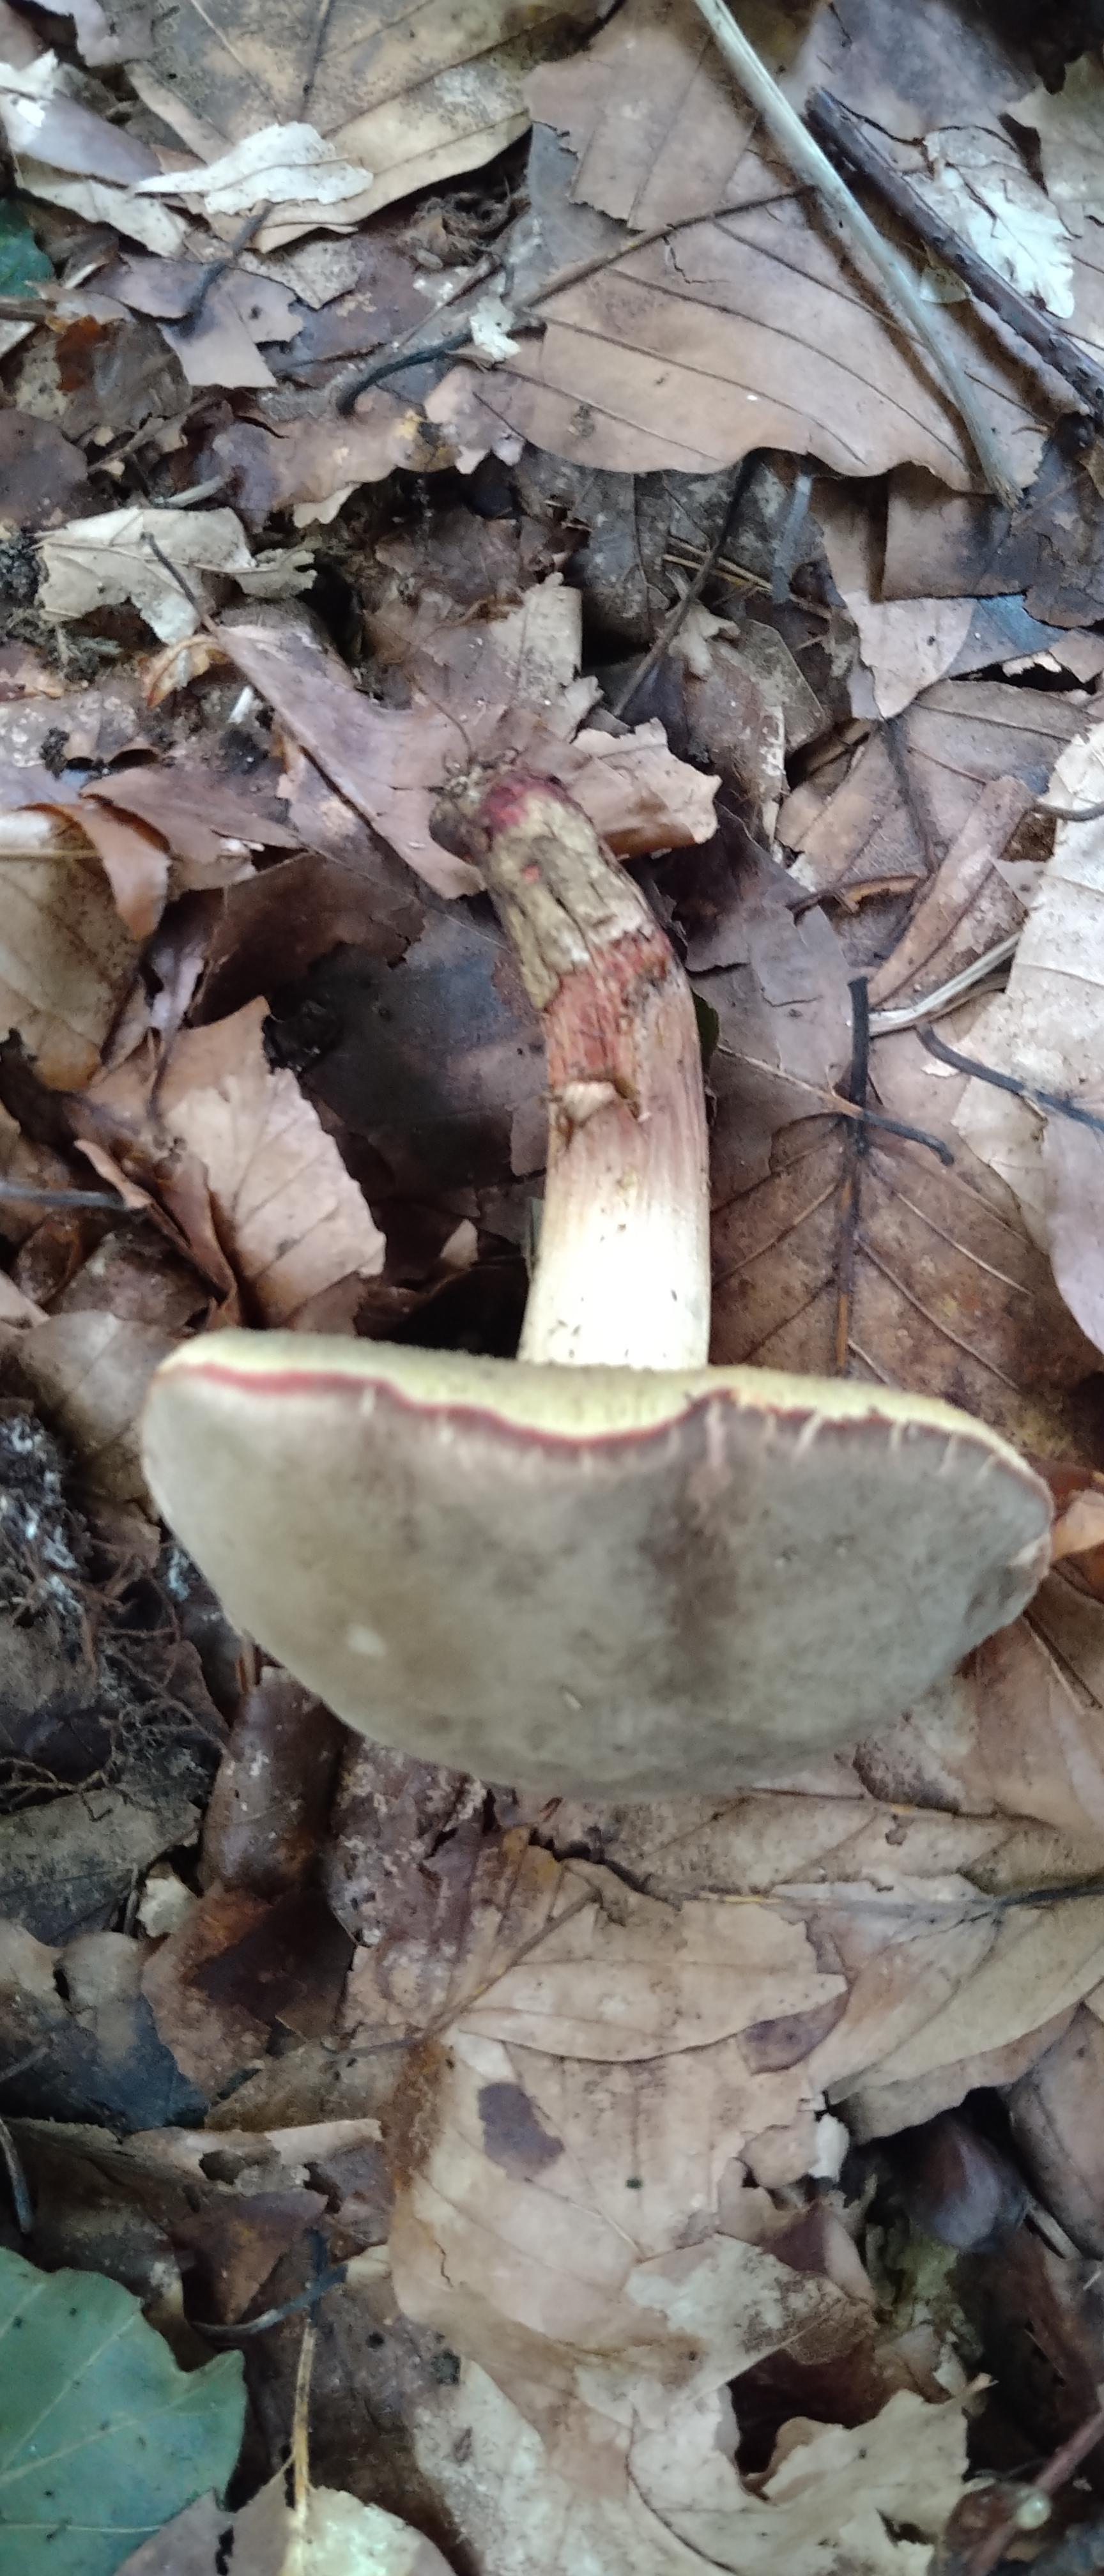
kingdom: Fungi
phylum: Basidiomycota
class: Agaricomycetes
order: Boletales
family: Boletaceae
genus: Xerocomellus
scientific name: Xerocomellus pruinatus
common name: dugget rørhat
